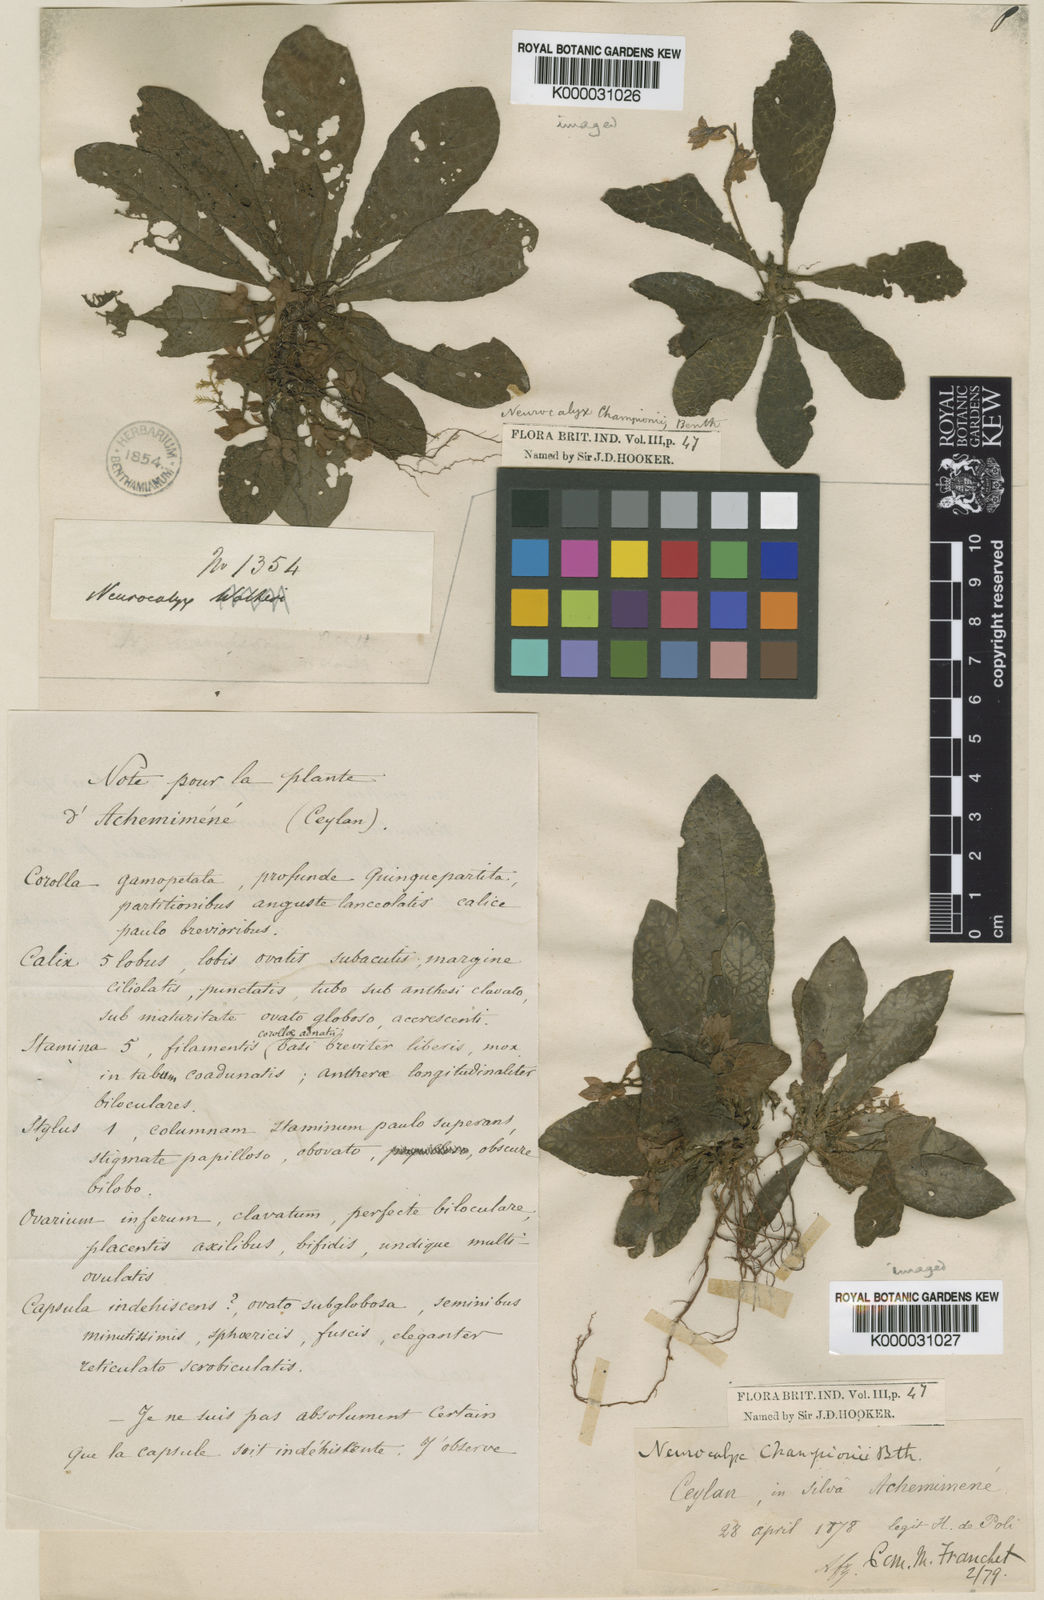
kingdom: Plantae
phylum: Tracheophyta
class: Magnoliopsida
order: Gentianales
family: Rubiaceae
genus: Neurocalyx
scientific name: Neurocalyx championii
